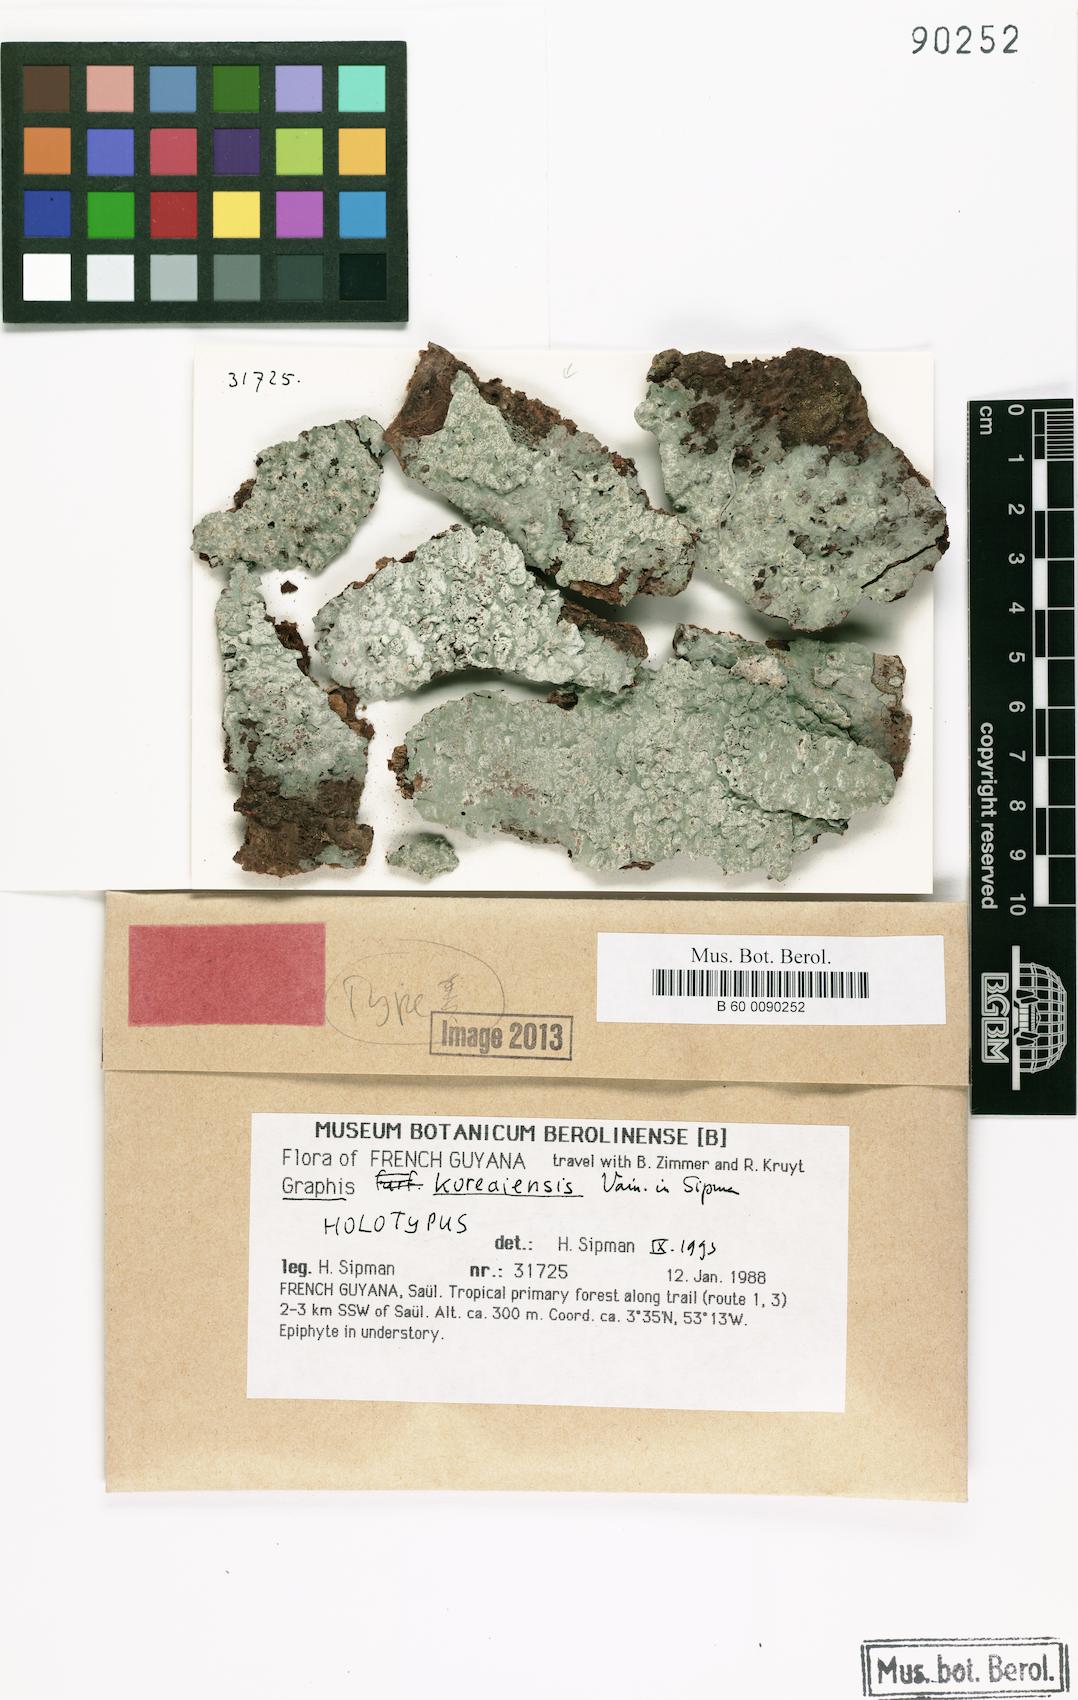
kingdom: Fungi
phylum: Ascomycota
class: Lecanoromycetes
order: Ostropales
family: Graphidaceae
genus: Gymnographopsis
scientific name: Gymnographopsis koreaiensis
